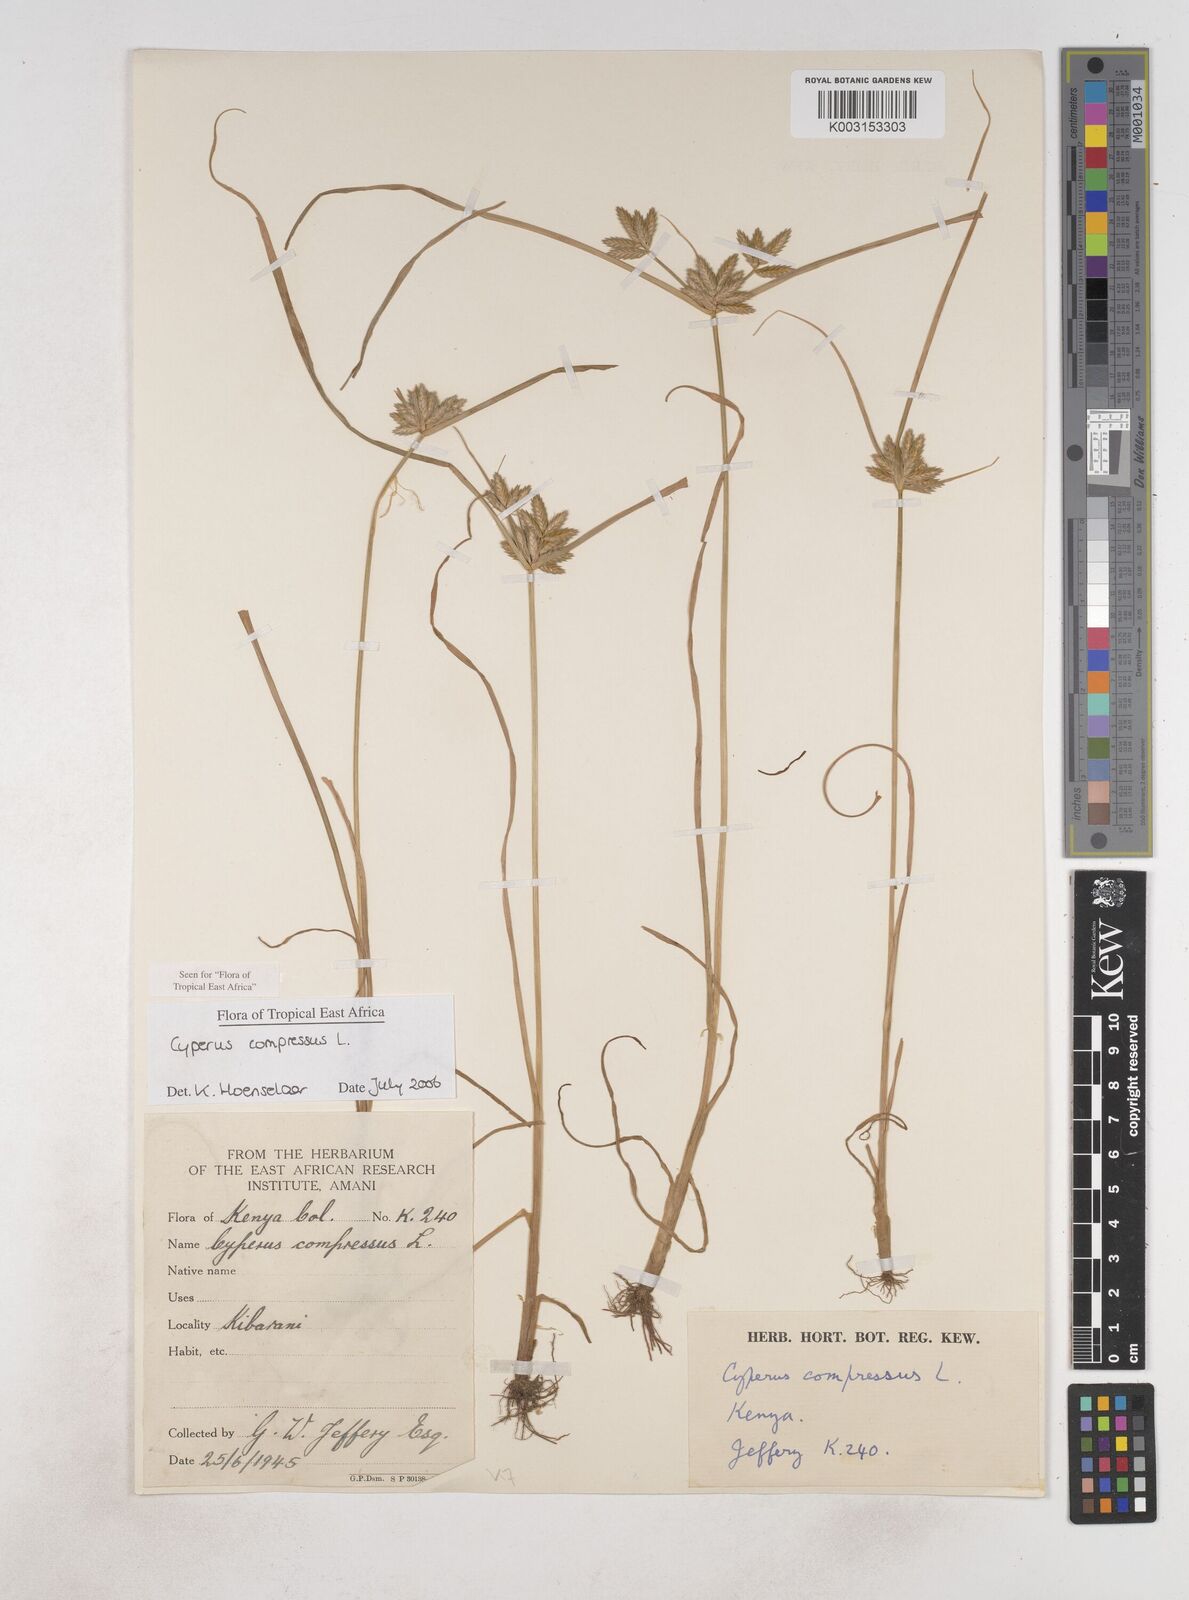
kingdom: Plantae
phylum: Tracheophyta
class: Liliopsida
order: Poales
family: Cyperaceae
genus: Cyperus
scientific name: Cyperus compressus
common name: Poorland flatsedge
